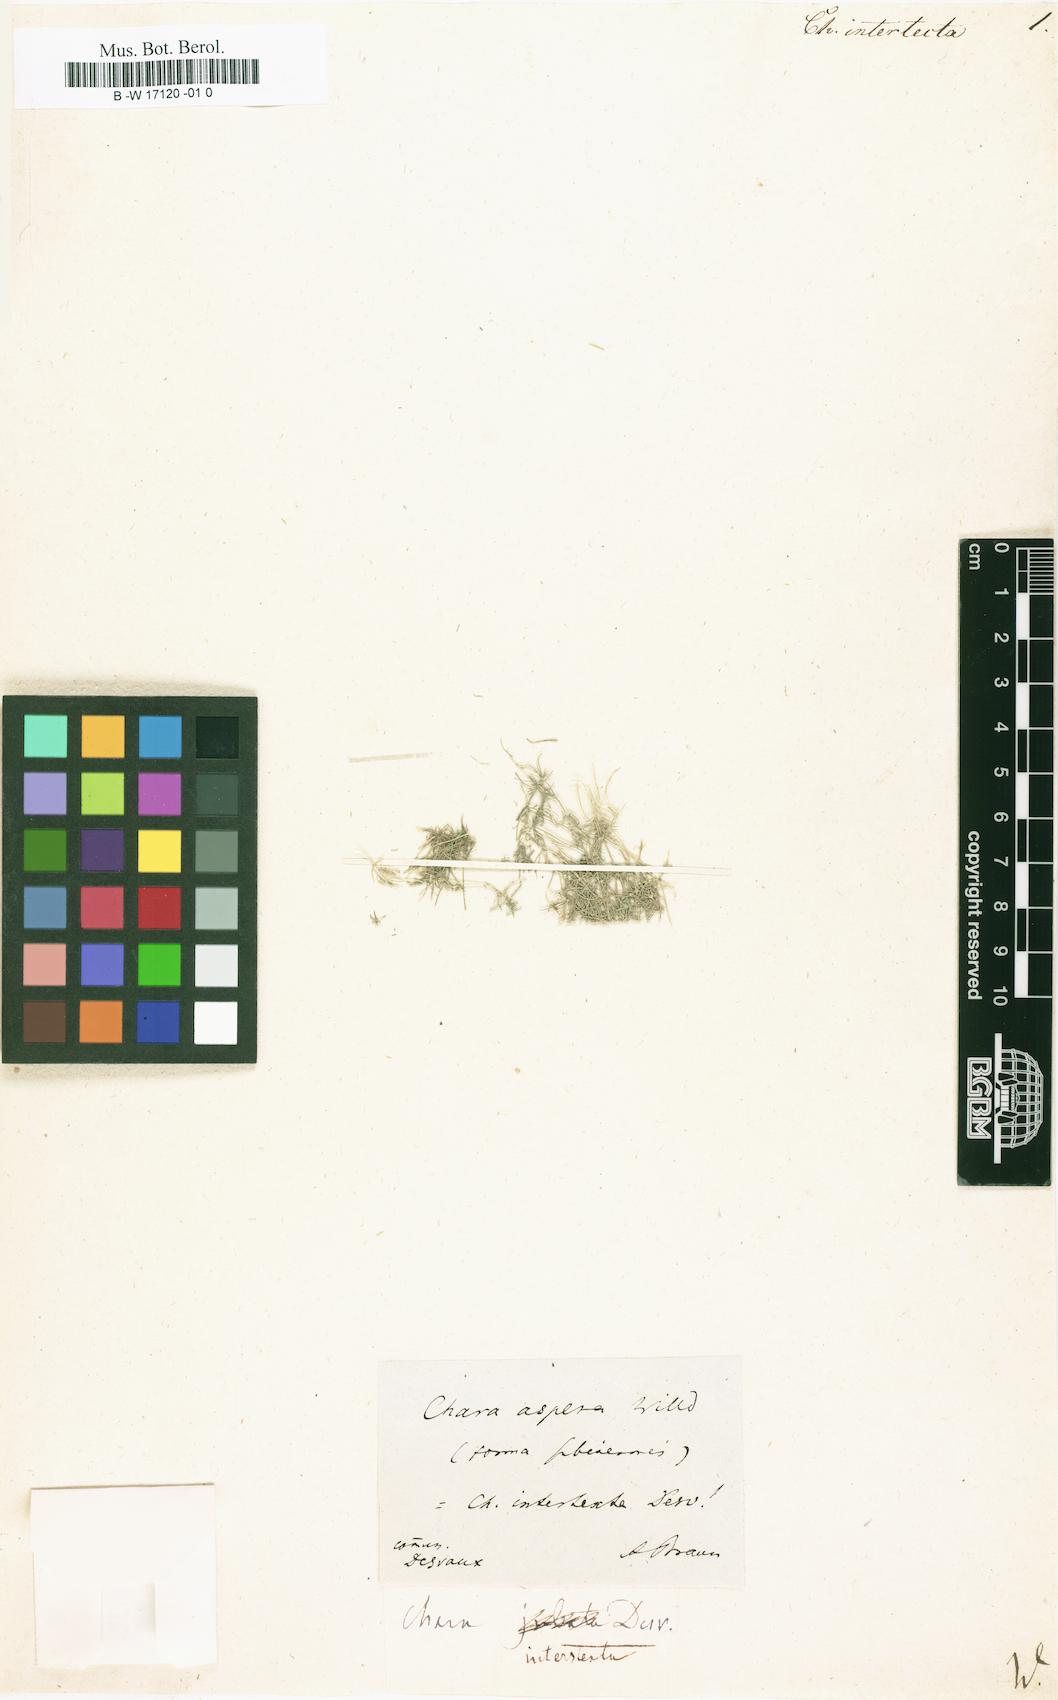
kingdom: Plantae
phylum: Charophyta
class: Charophyceae
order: Charales
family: Characeae
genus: Chara
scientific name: Chara aspera
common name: Rough stonewort
